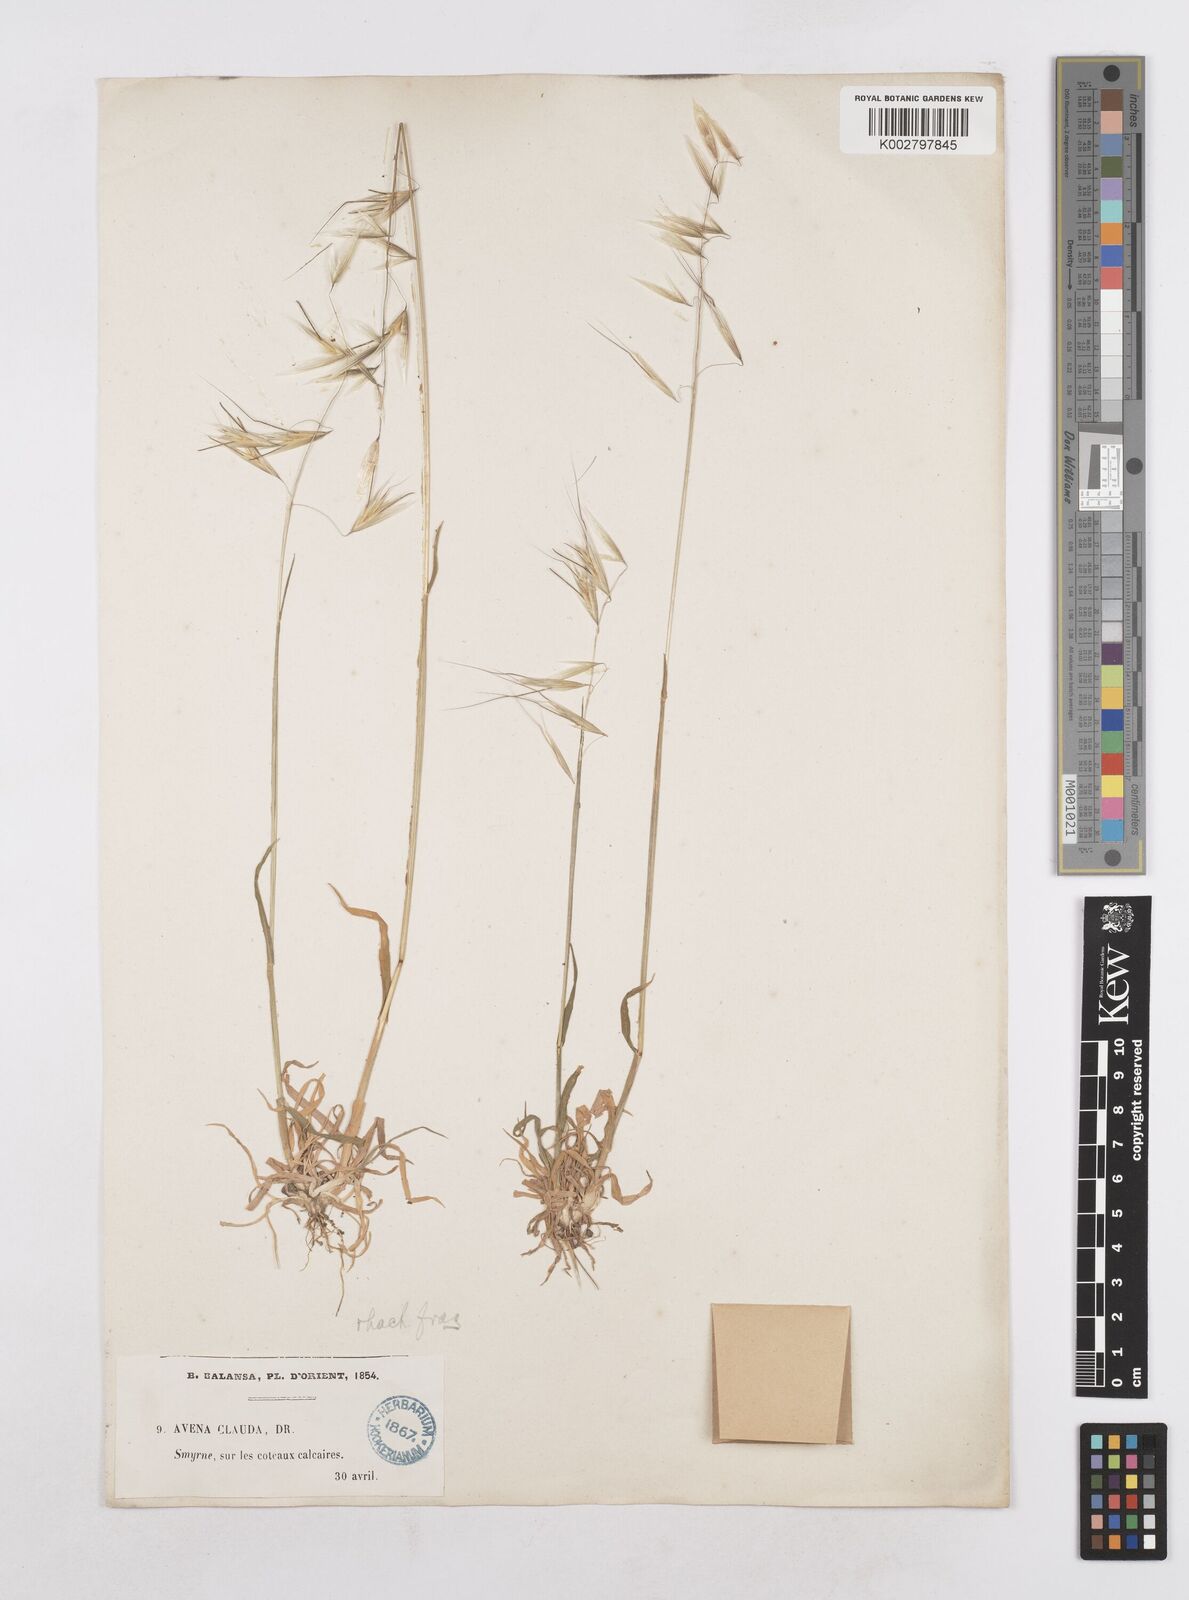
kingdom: Plantae
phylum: Tracheophyta
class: Liliopsida
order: Poales
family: Poaceae
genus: Avena
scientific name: Avena clauda
